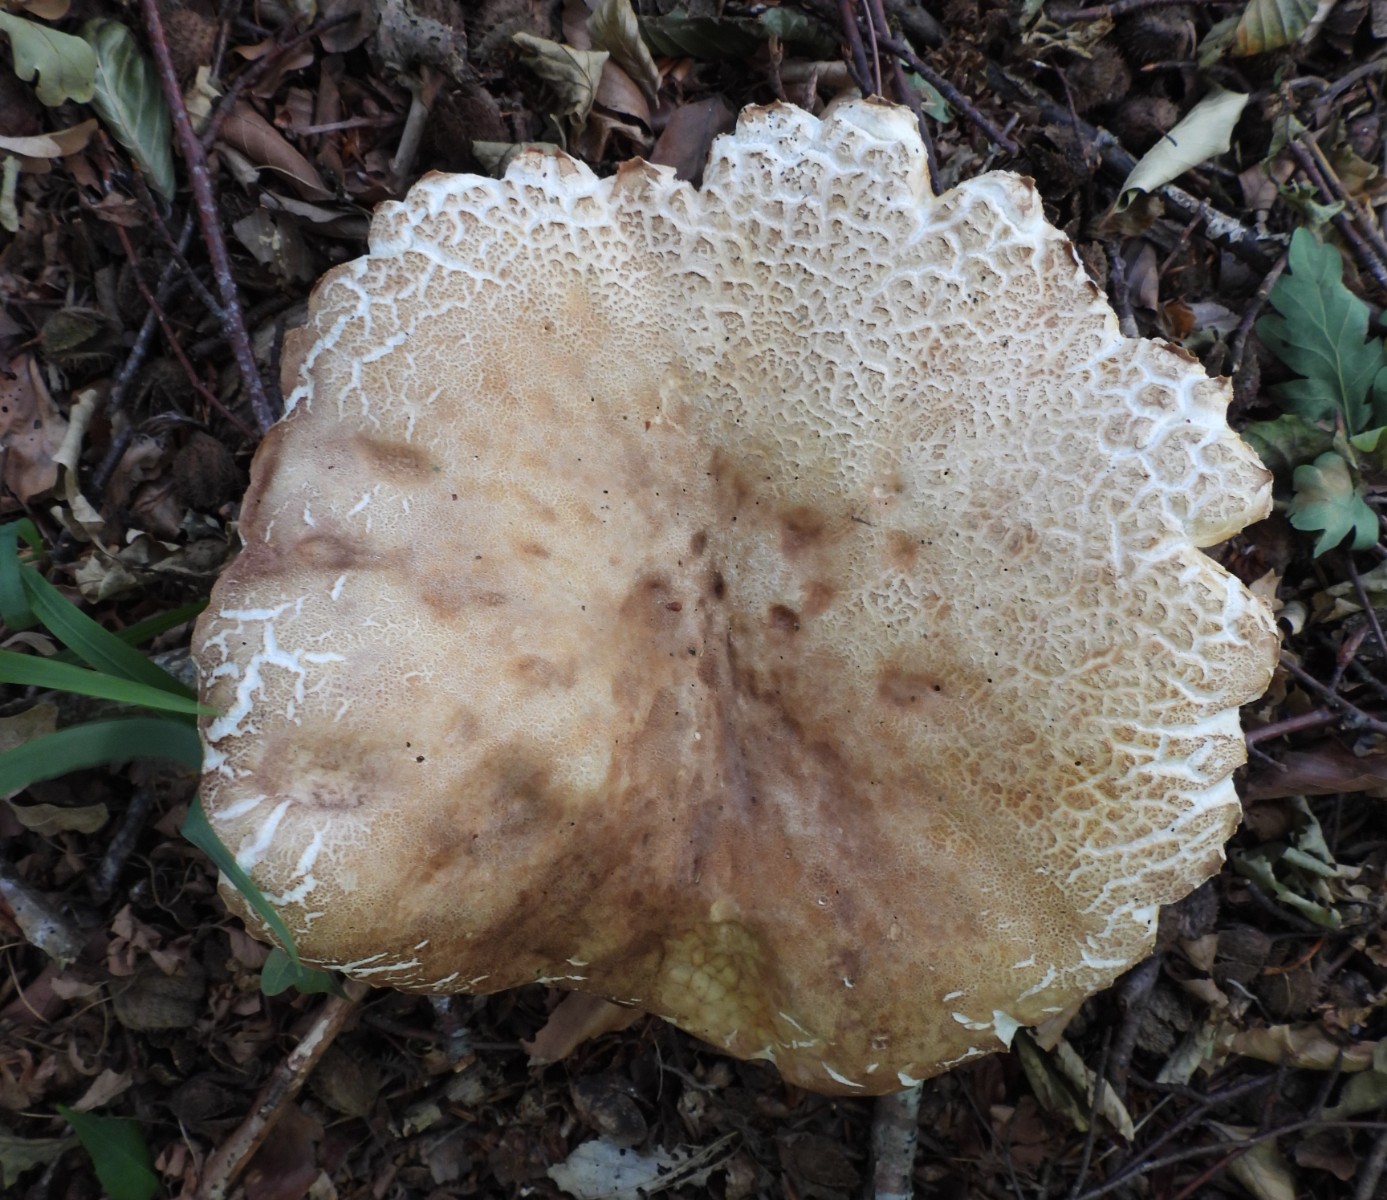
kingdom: Fungi
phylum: Basidiomycota
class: Agaricomycetes
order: Boletales
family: Boletaceae
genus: Boletus
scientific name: Boletus reticulatus
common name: sommer-rørhat
